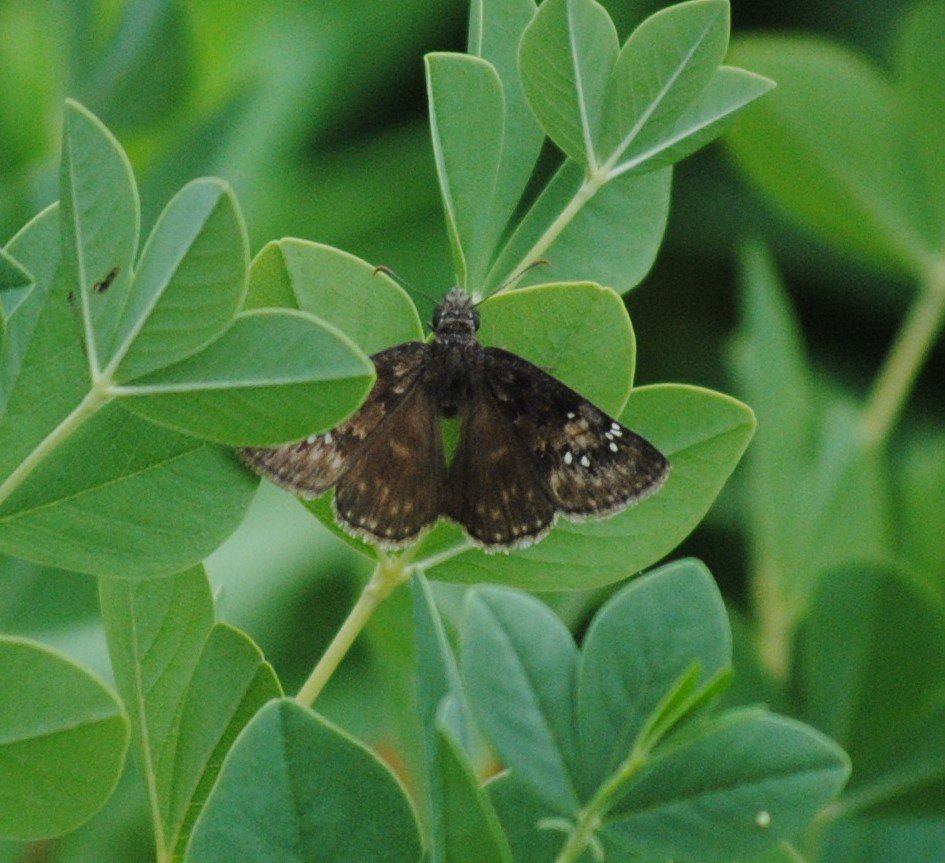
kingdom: Animalia
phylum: Arthropoda
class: Insecta
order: Lepidoptera
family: Hesperiidae
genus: Gesta
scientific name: Gesta
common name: Wild Indigo Duskywing
